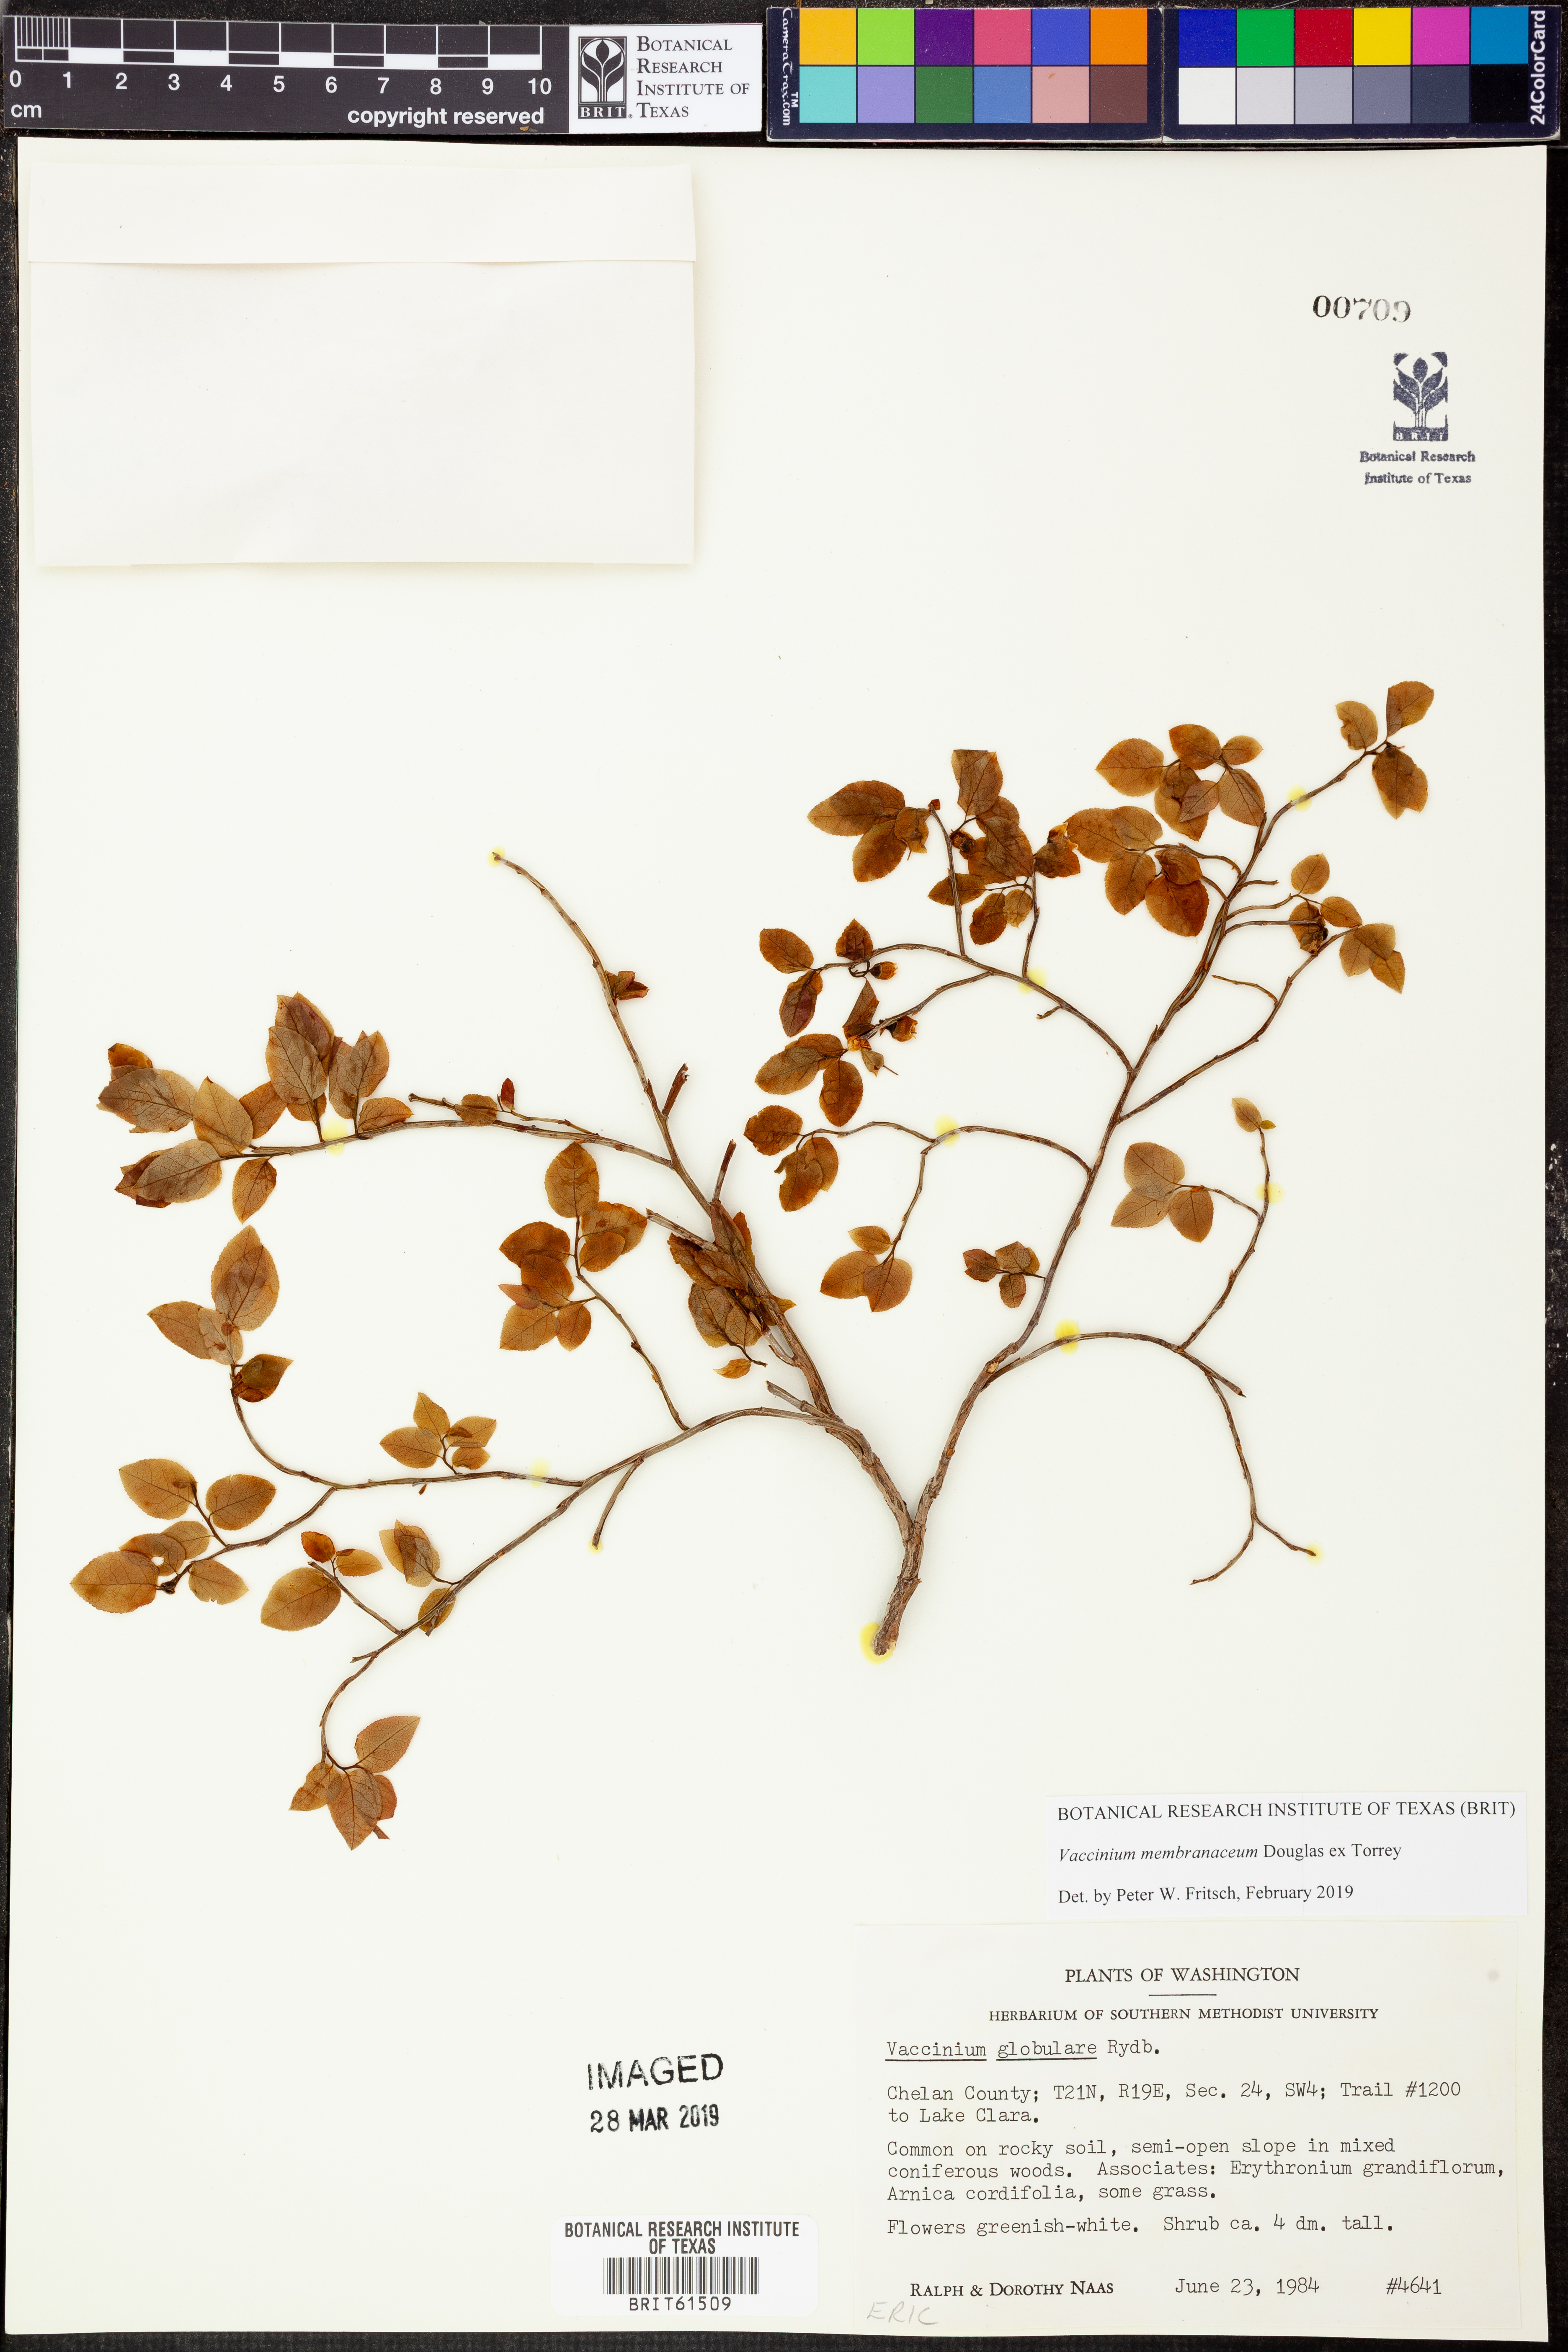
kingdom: Plantae
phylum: Tracheophyta
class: Magnoliopsida
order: Ericales
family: Ericaceae
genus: Vaccinium
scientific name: Vaccinium myrtillus
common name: Bilberry
